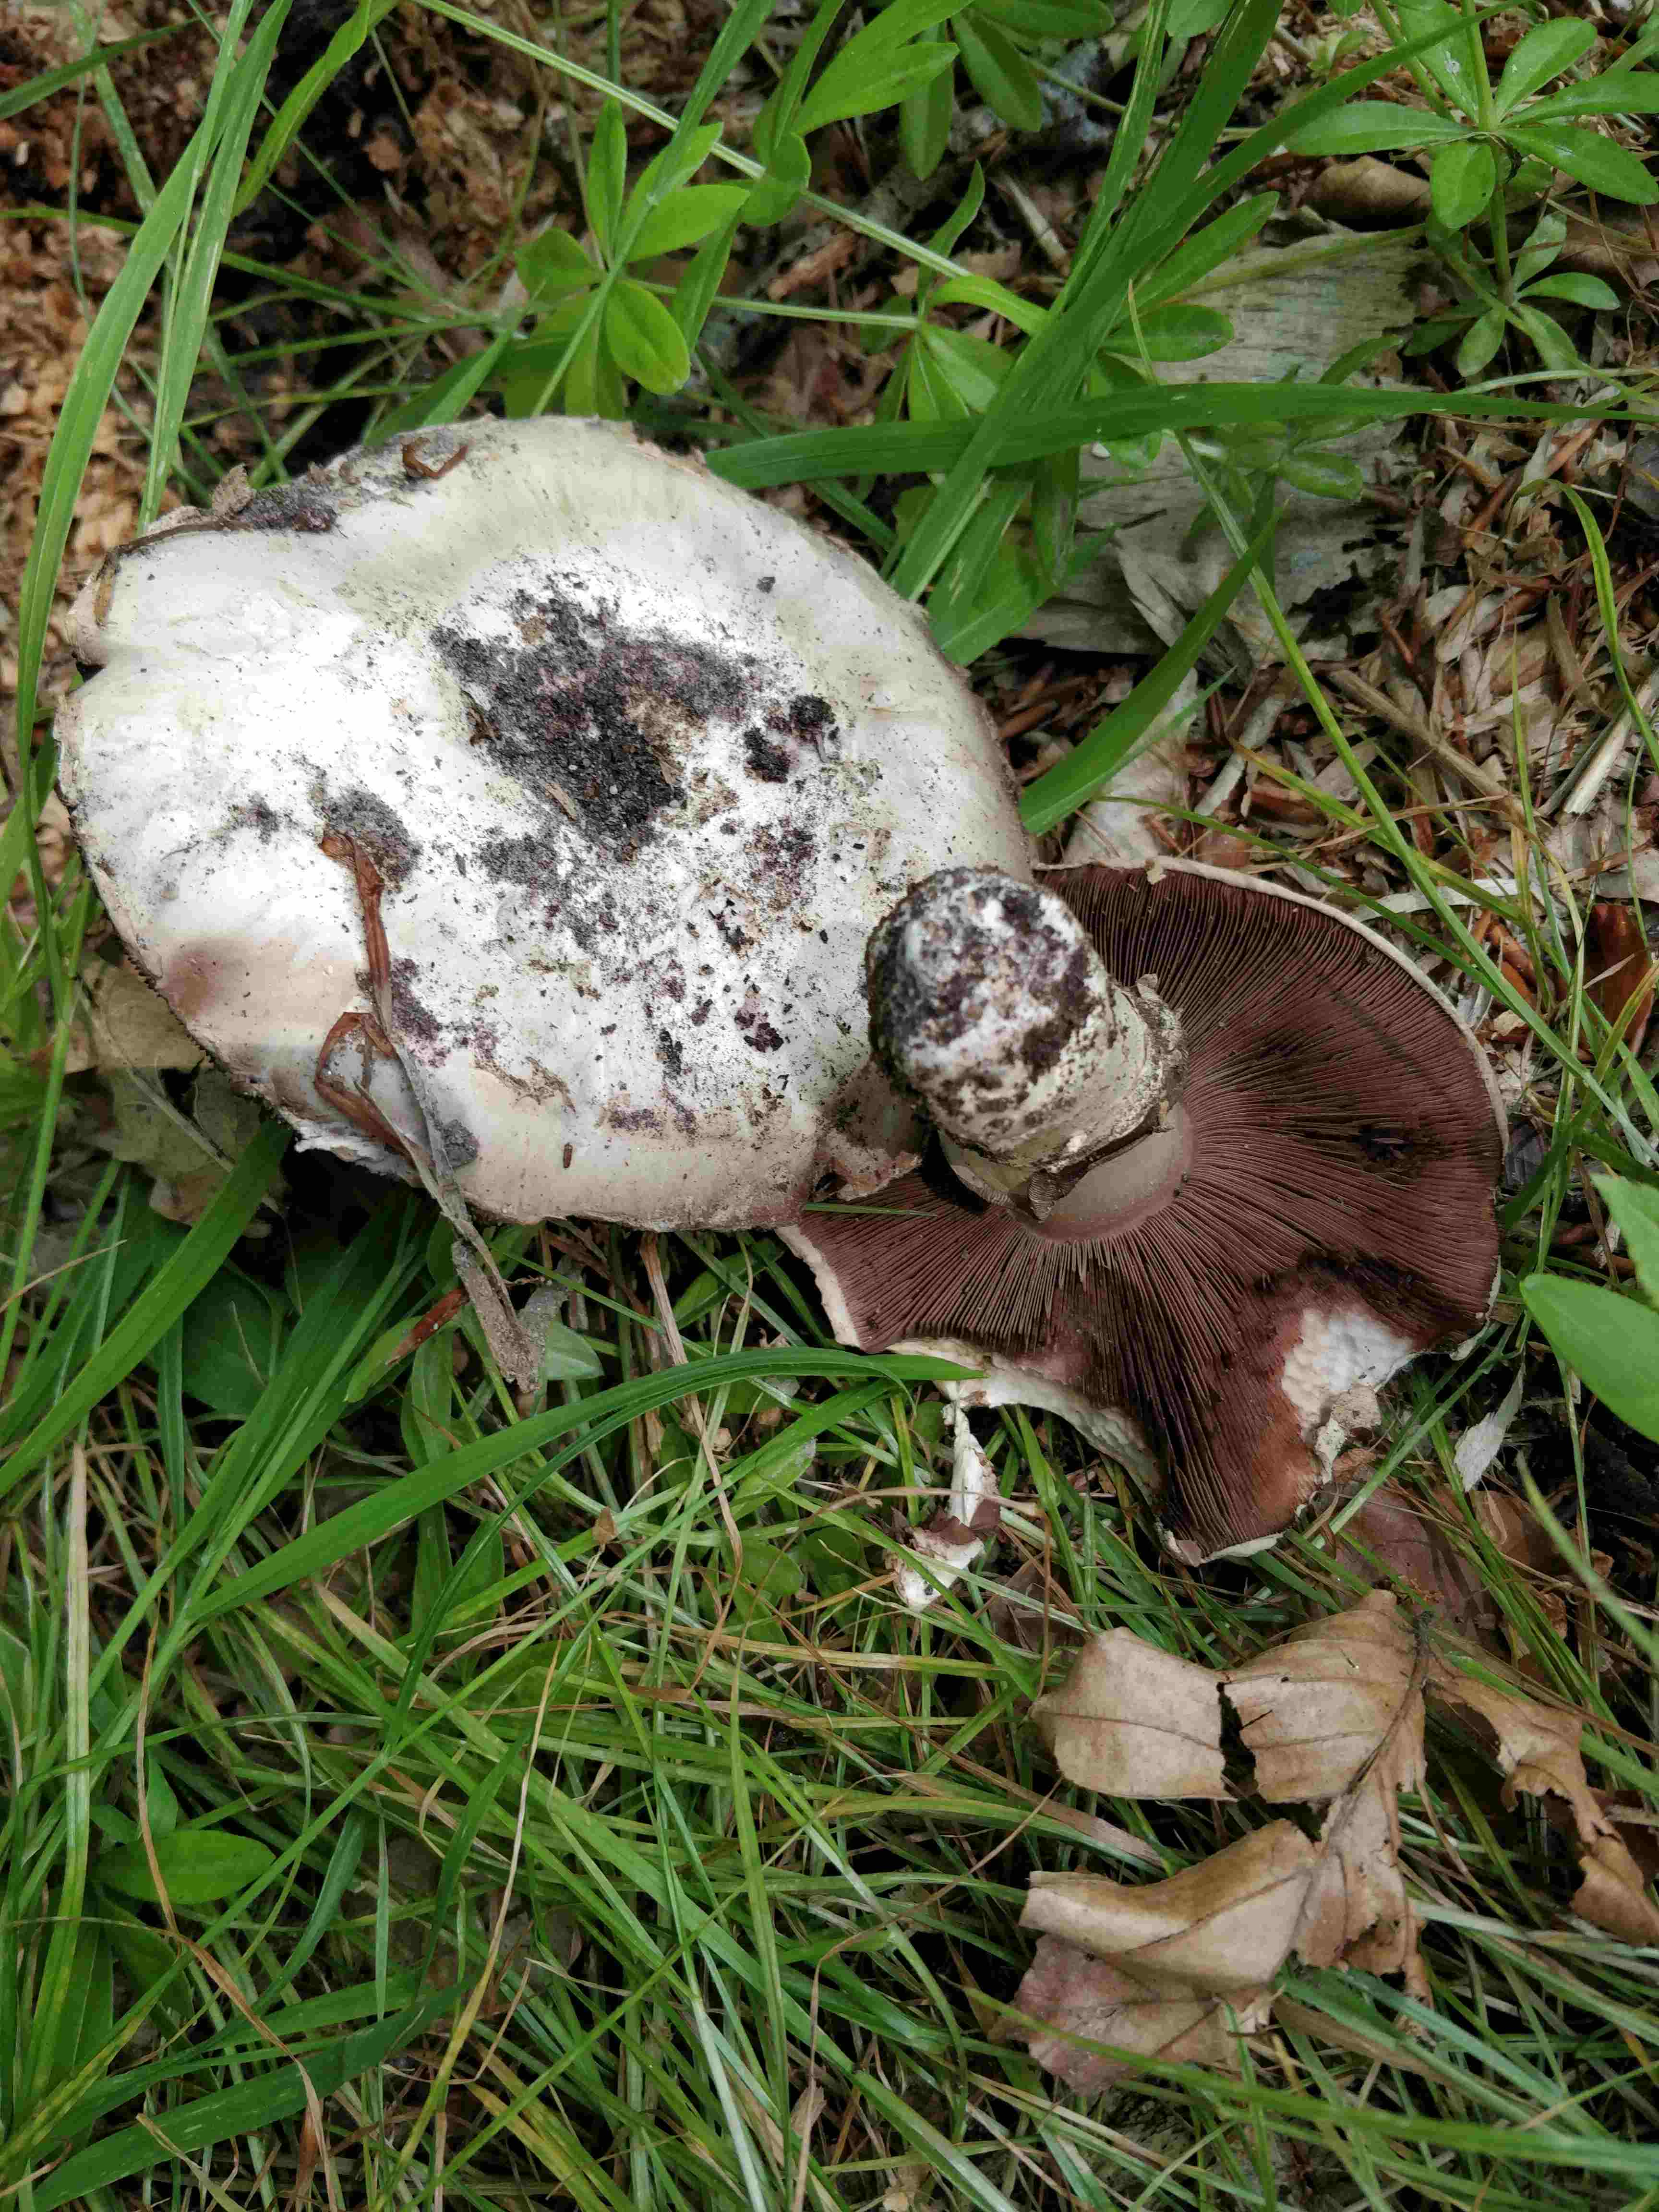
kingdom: Fungi
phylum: Basidiomycota
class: Agaricomycetes
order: Agaricales
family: Agaricaceae
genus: Agaricus
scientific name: Agaricus bitorquis
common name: vej-champignon
